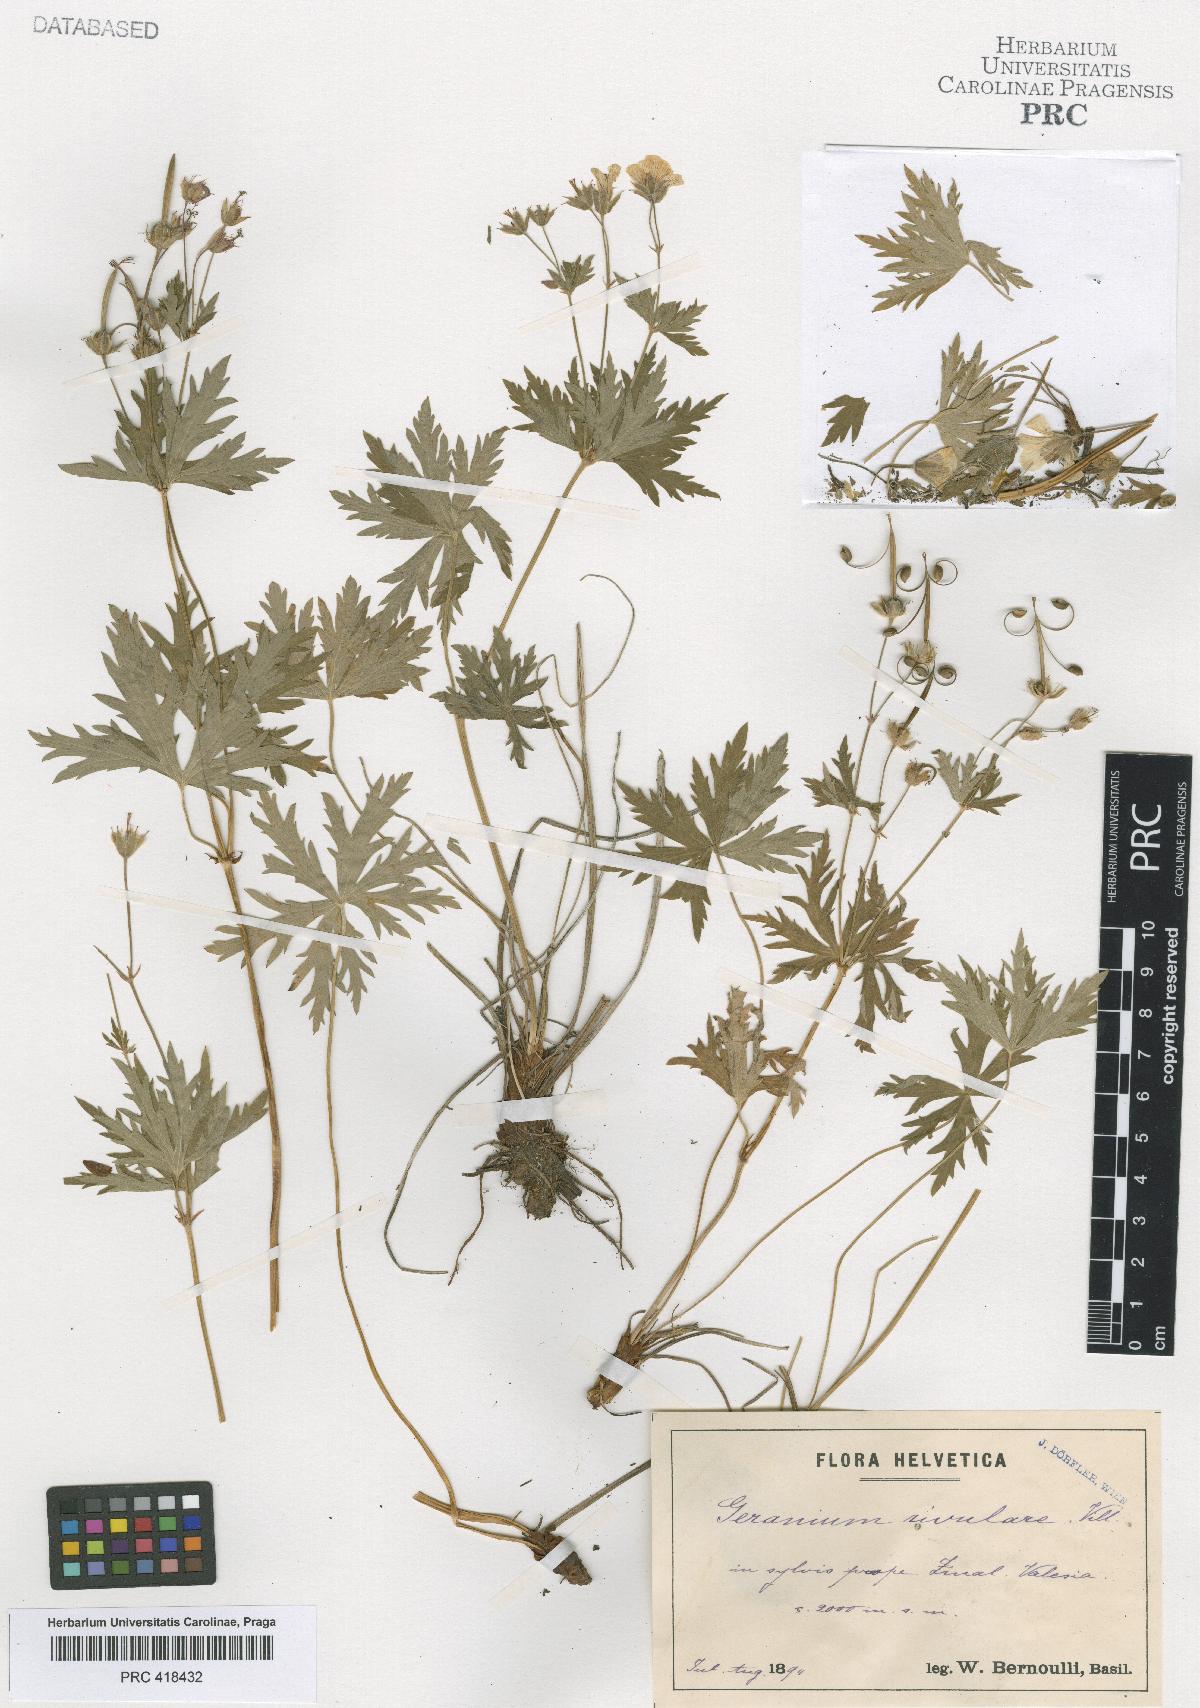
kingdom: Plantae
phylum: Tracheophyta
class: Magnoliopsida
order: Geraniales
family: Geraniaceae
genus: Geranium
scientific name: Geranium rivulare
